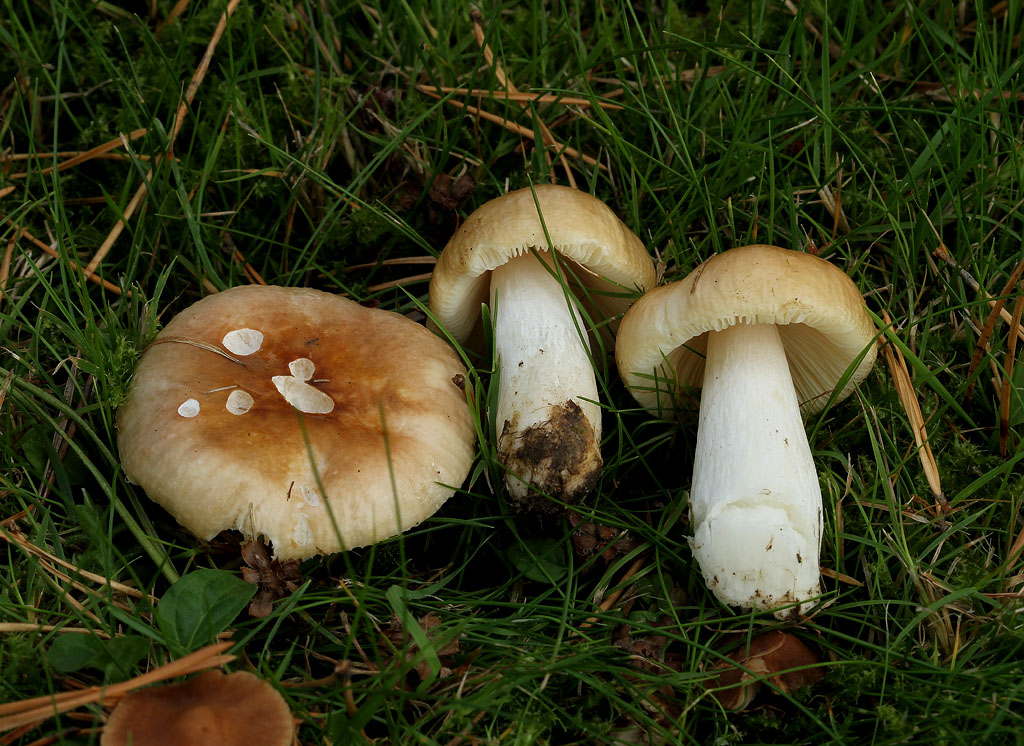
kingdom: Fungi
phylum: Basidiomycota
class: Agaricomycetes
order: Russulales
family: Russulaceae
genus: Russula
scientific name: Russula cessans
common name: fyrre-skørhat
